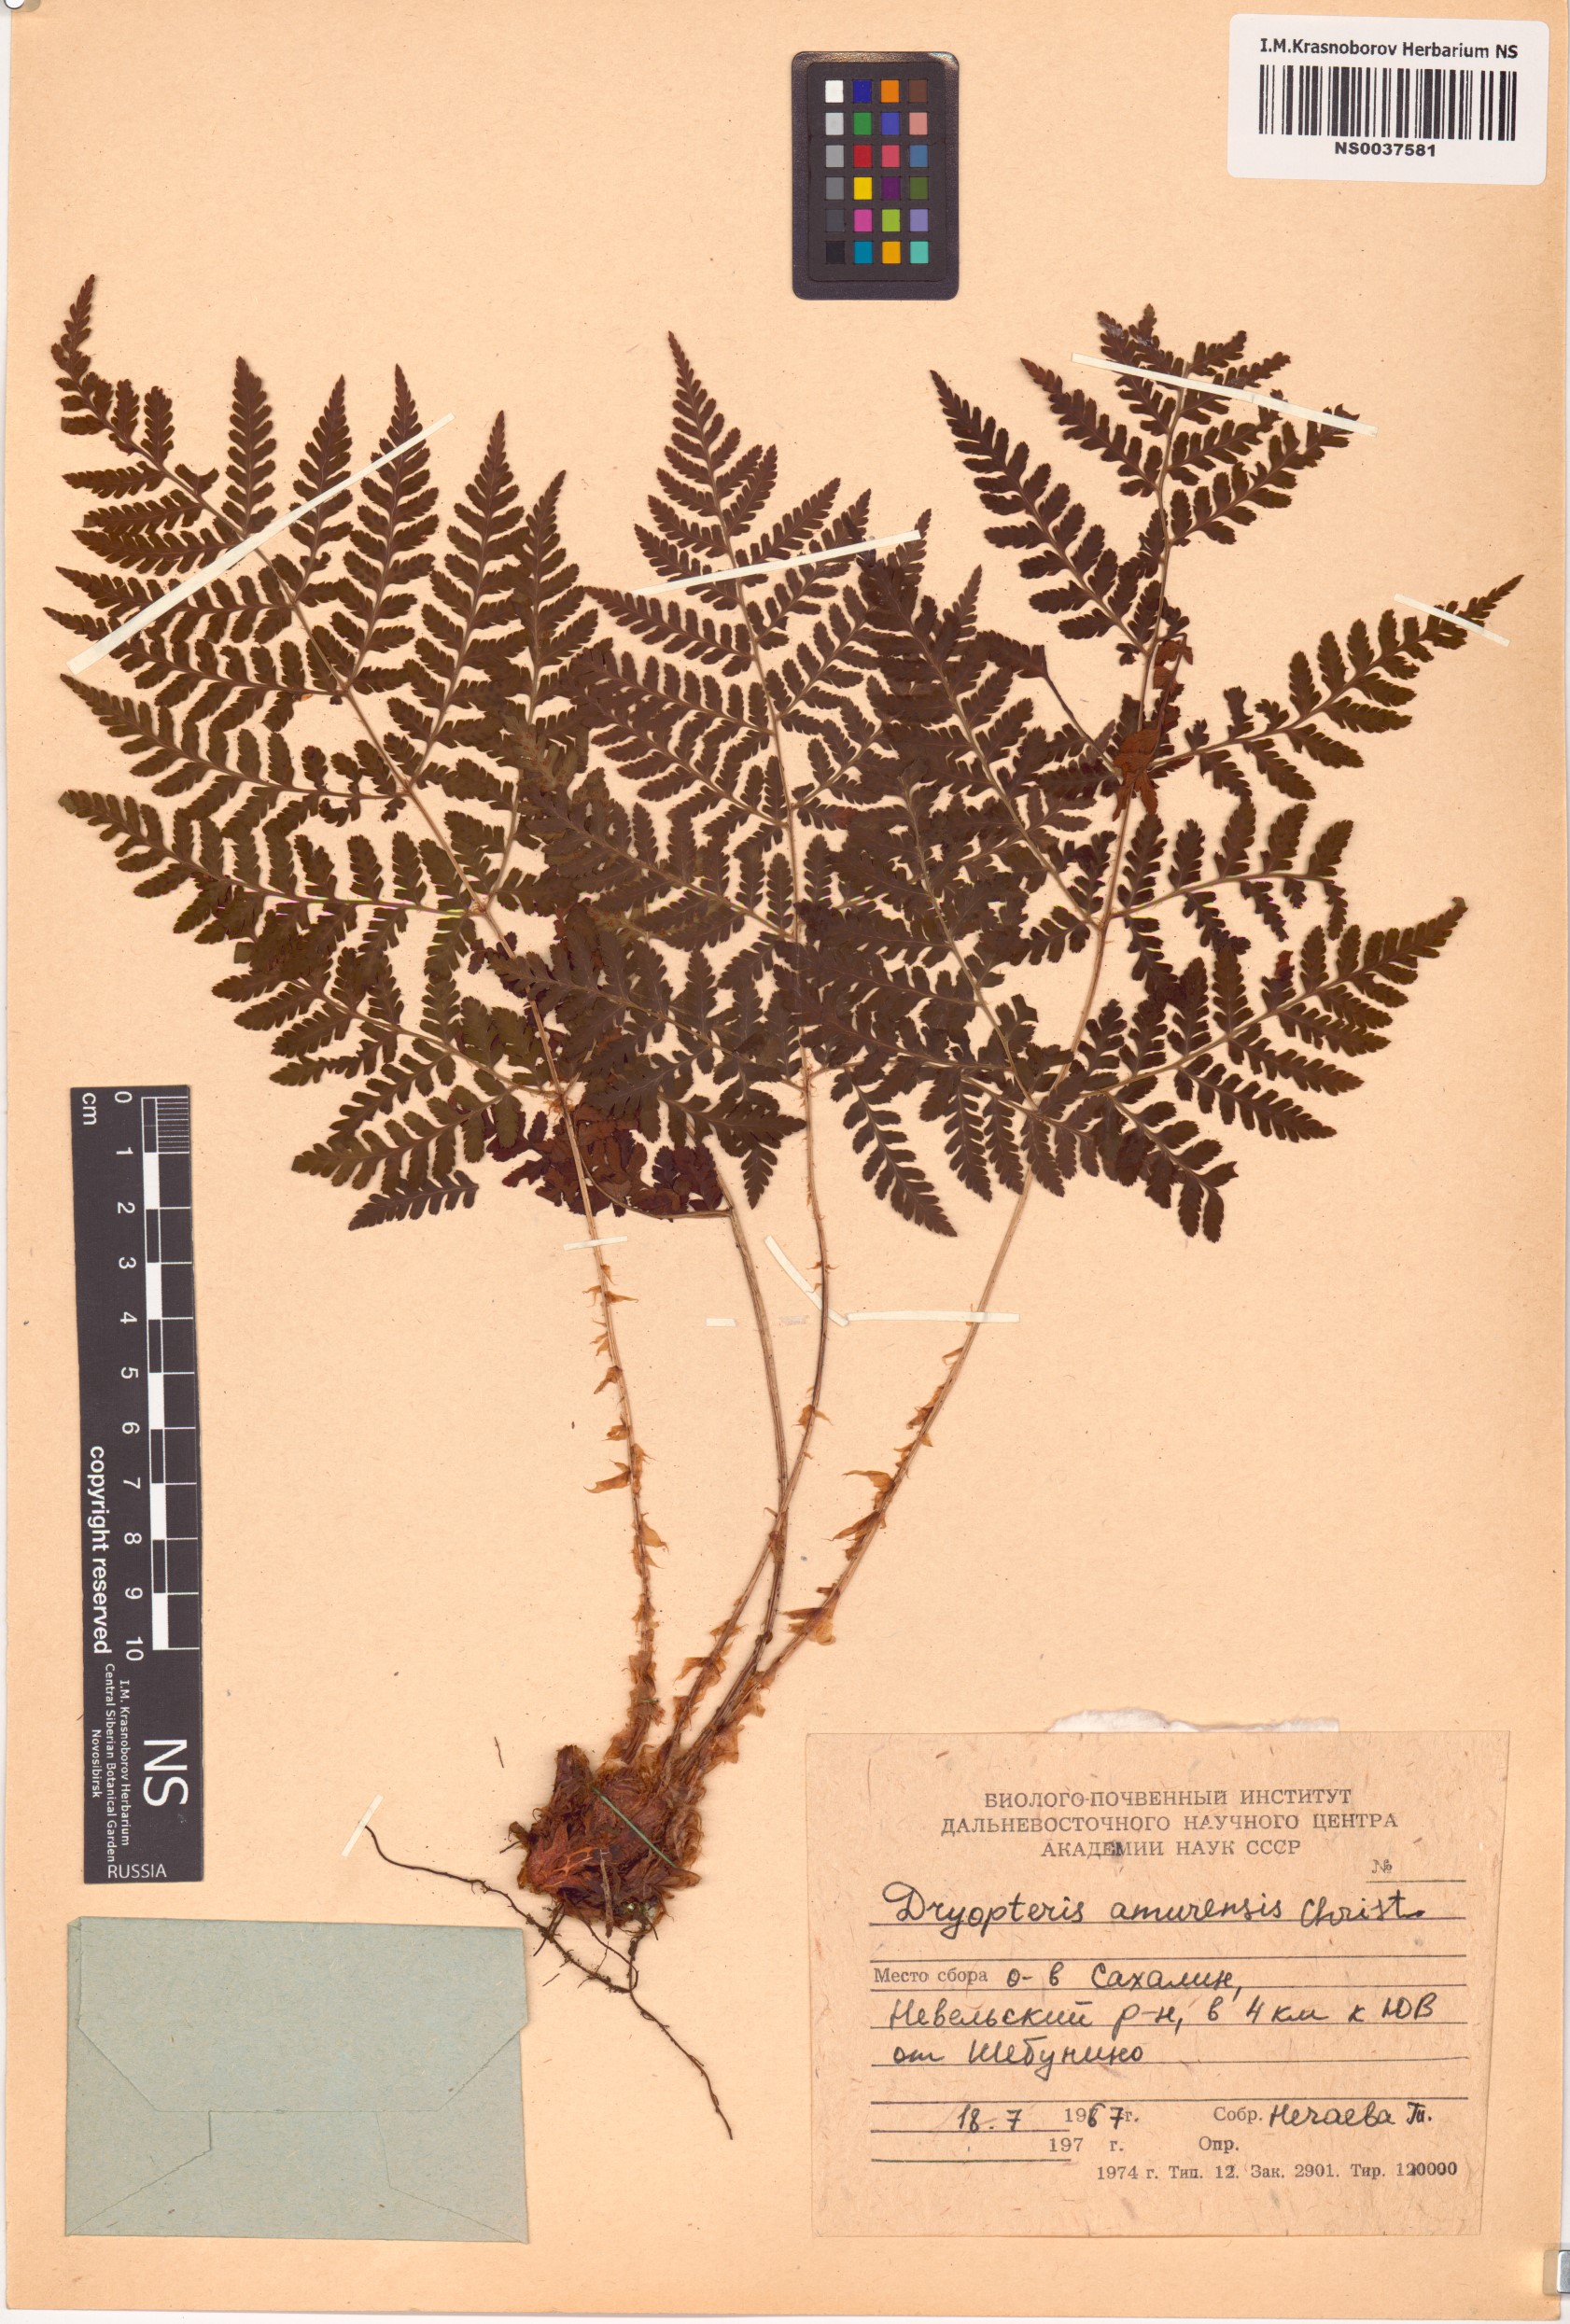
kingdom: Plantae
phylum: Tracheophyta
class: Polypodiopsida
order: Polypodiales
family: Dryopteridaceae
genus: Dryopteris
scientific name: Dryopteris amurensis
